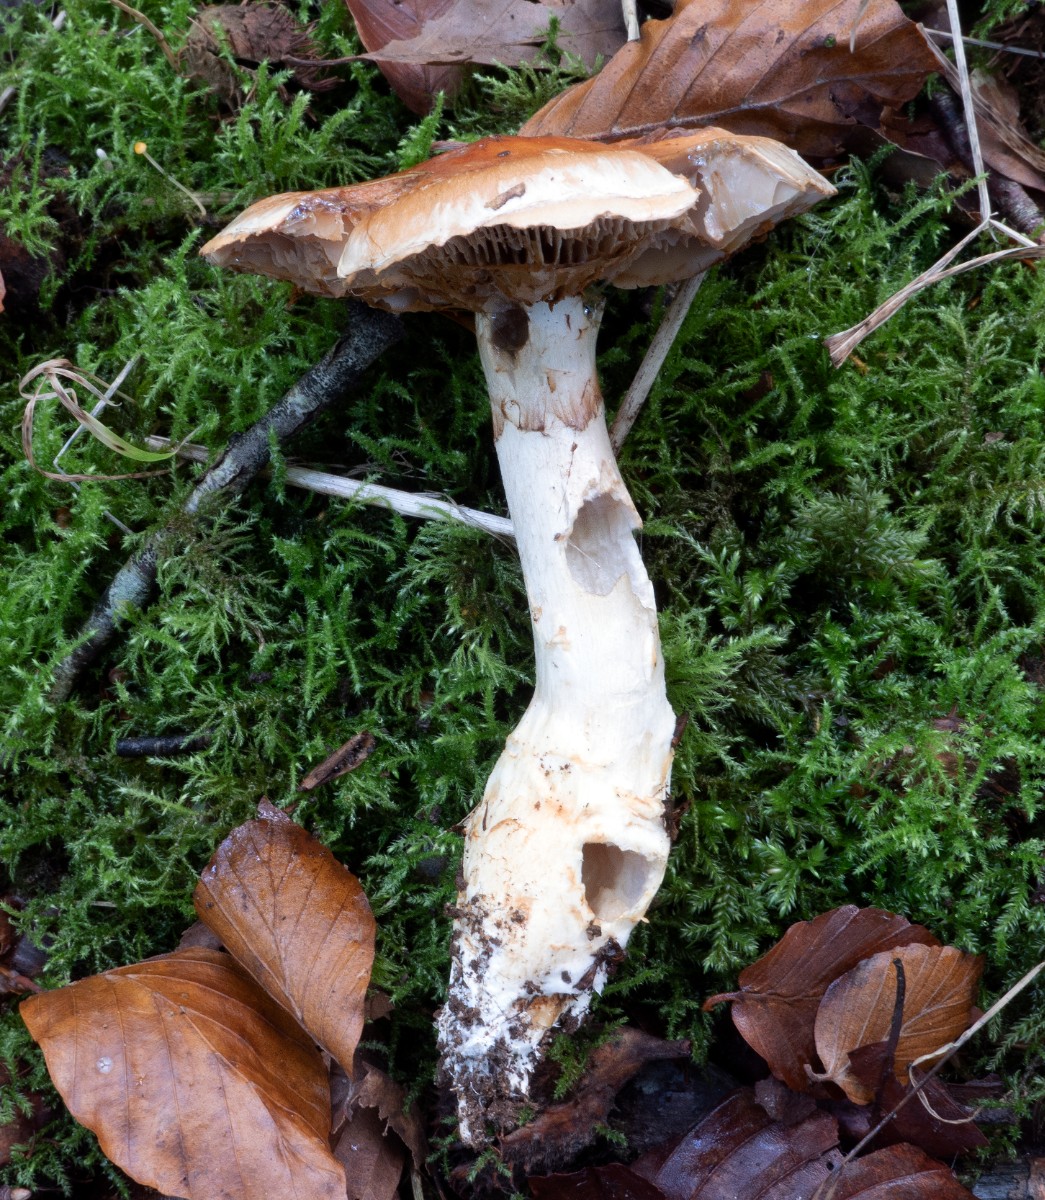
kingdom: Fungi
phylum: Basidiomycota
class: Agaricomycetes
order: Agaricales
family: Cortinariaceae
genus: Phlegmacium
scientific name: Phlegmacium vulpinum
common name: ringbæltet slørhat
